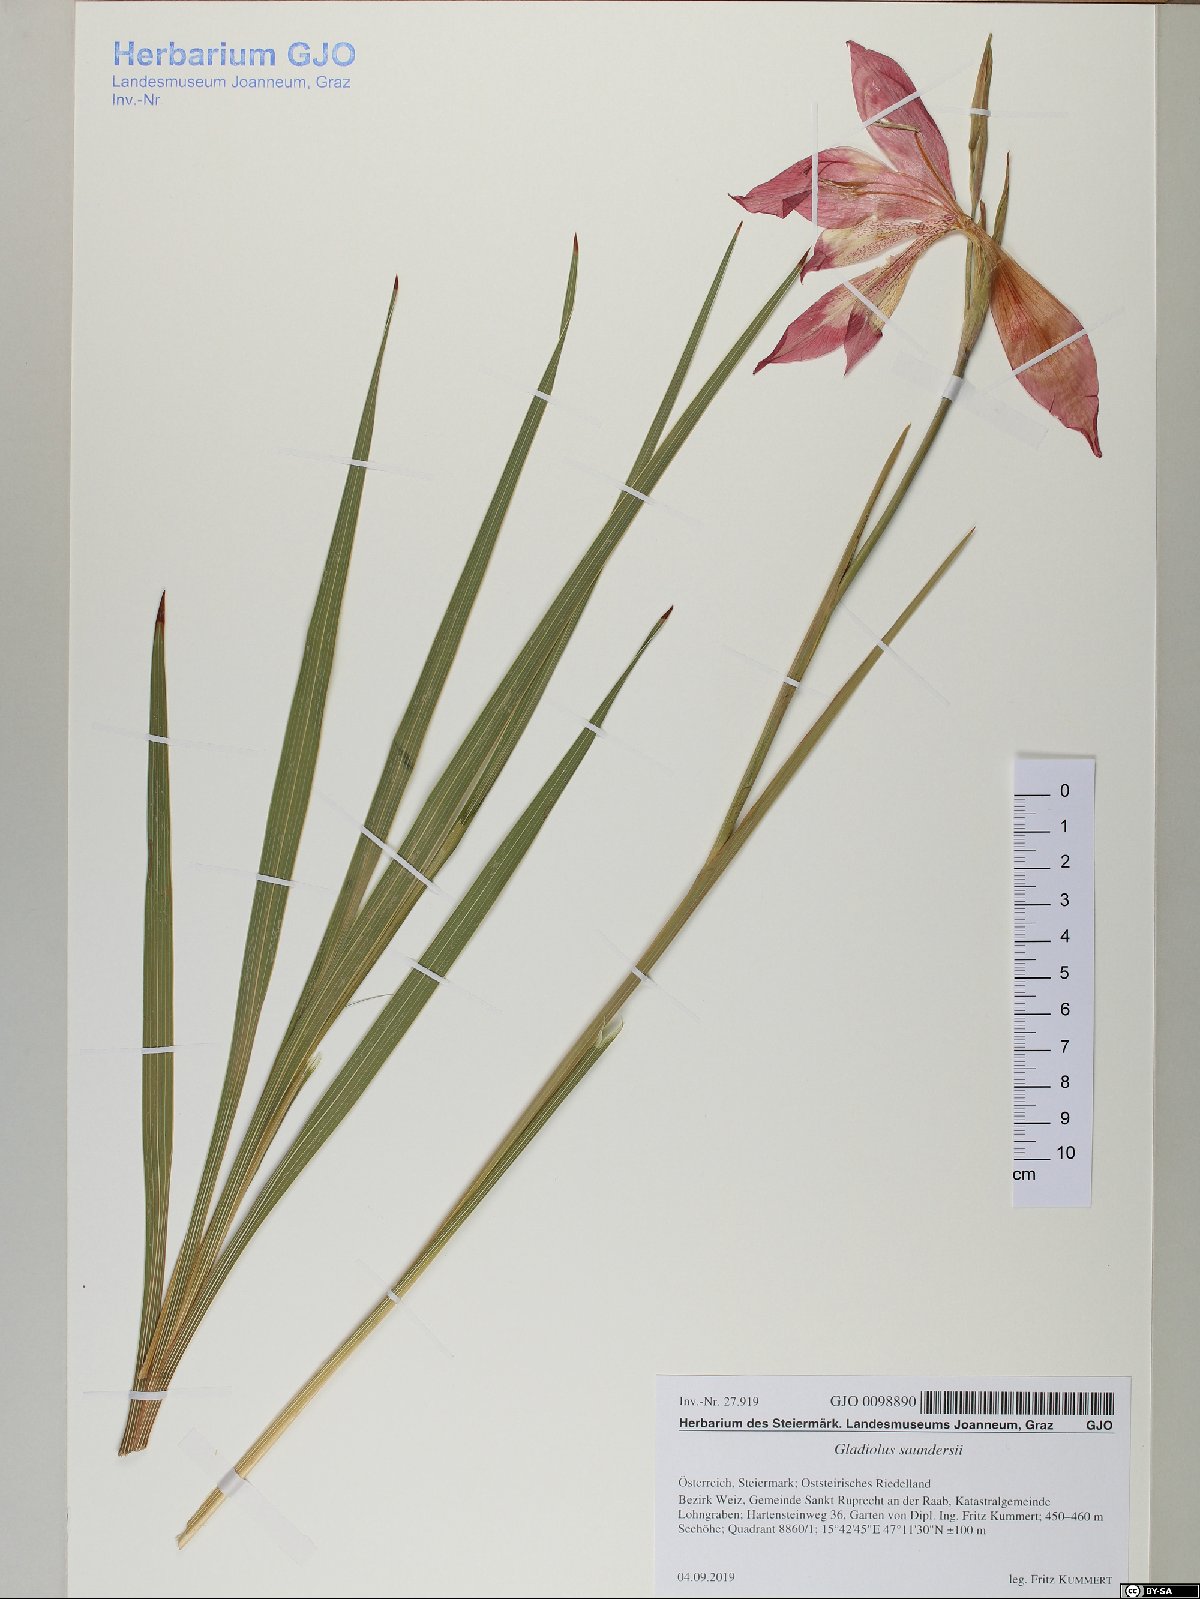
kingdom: Plantae
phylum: Tracheophyta
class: Liliopsida
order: Asparagales
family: Iridaceae
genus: Gladiolus
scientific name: Gladiolus saundersii
